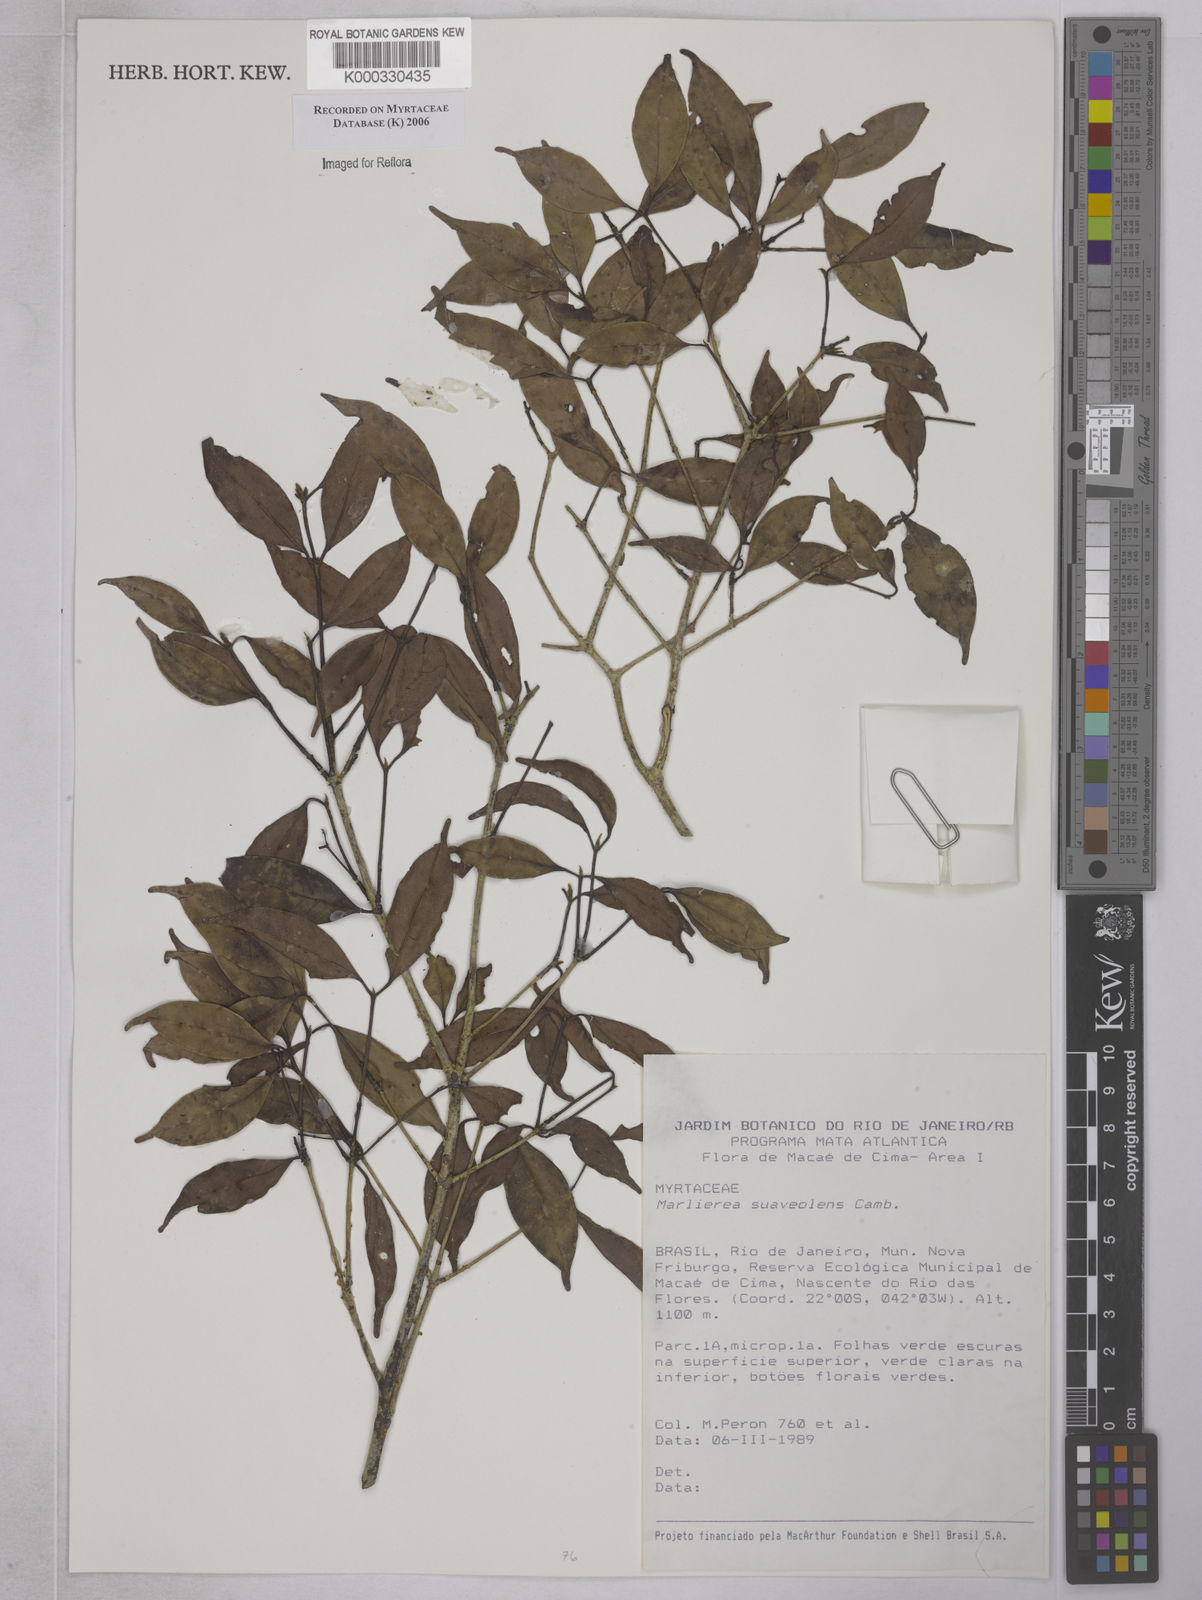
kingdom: Plantae
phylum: Tracheophyta
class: Magnoliopsida
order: Myrtales
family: Myrtaceae
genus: Myrcia
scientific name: Myrcia neosuaveolens
